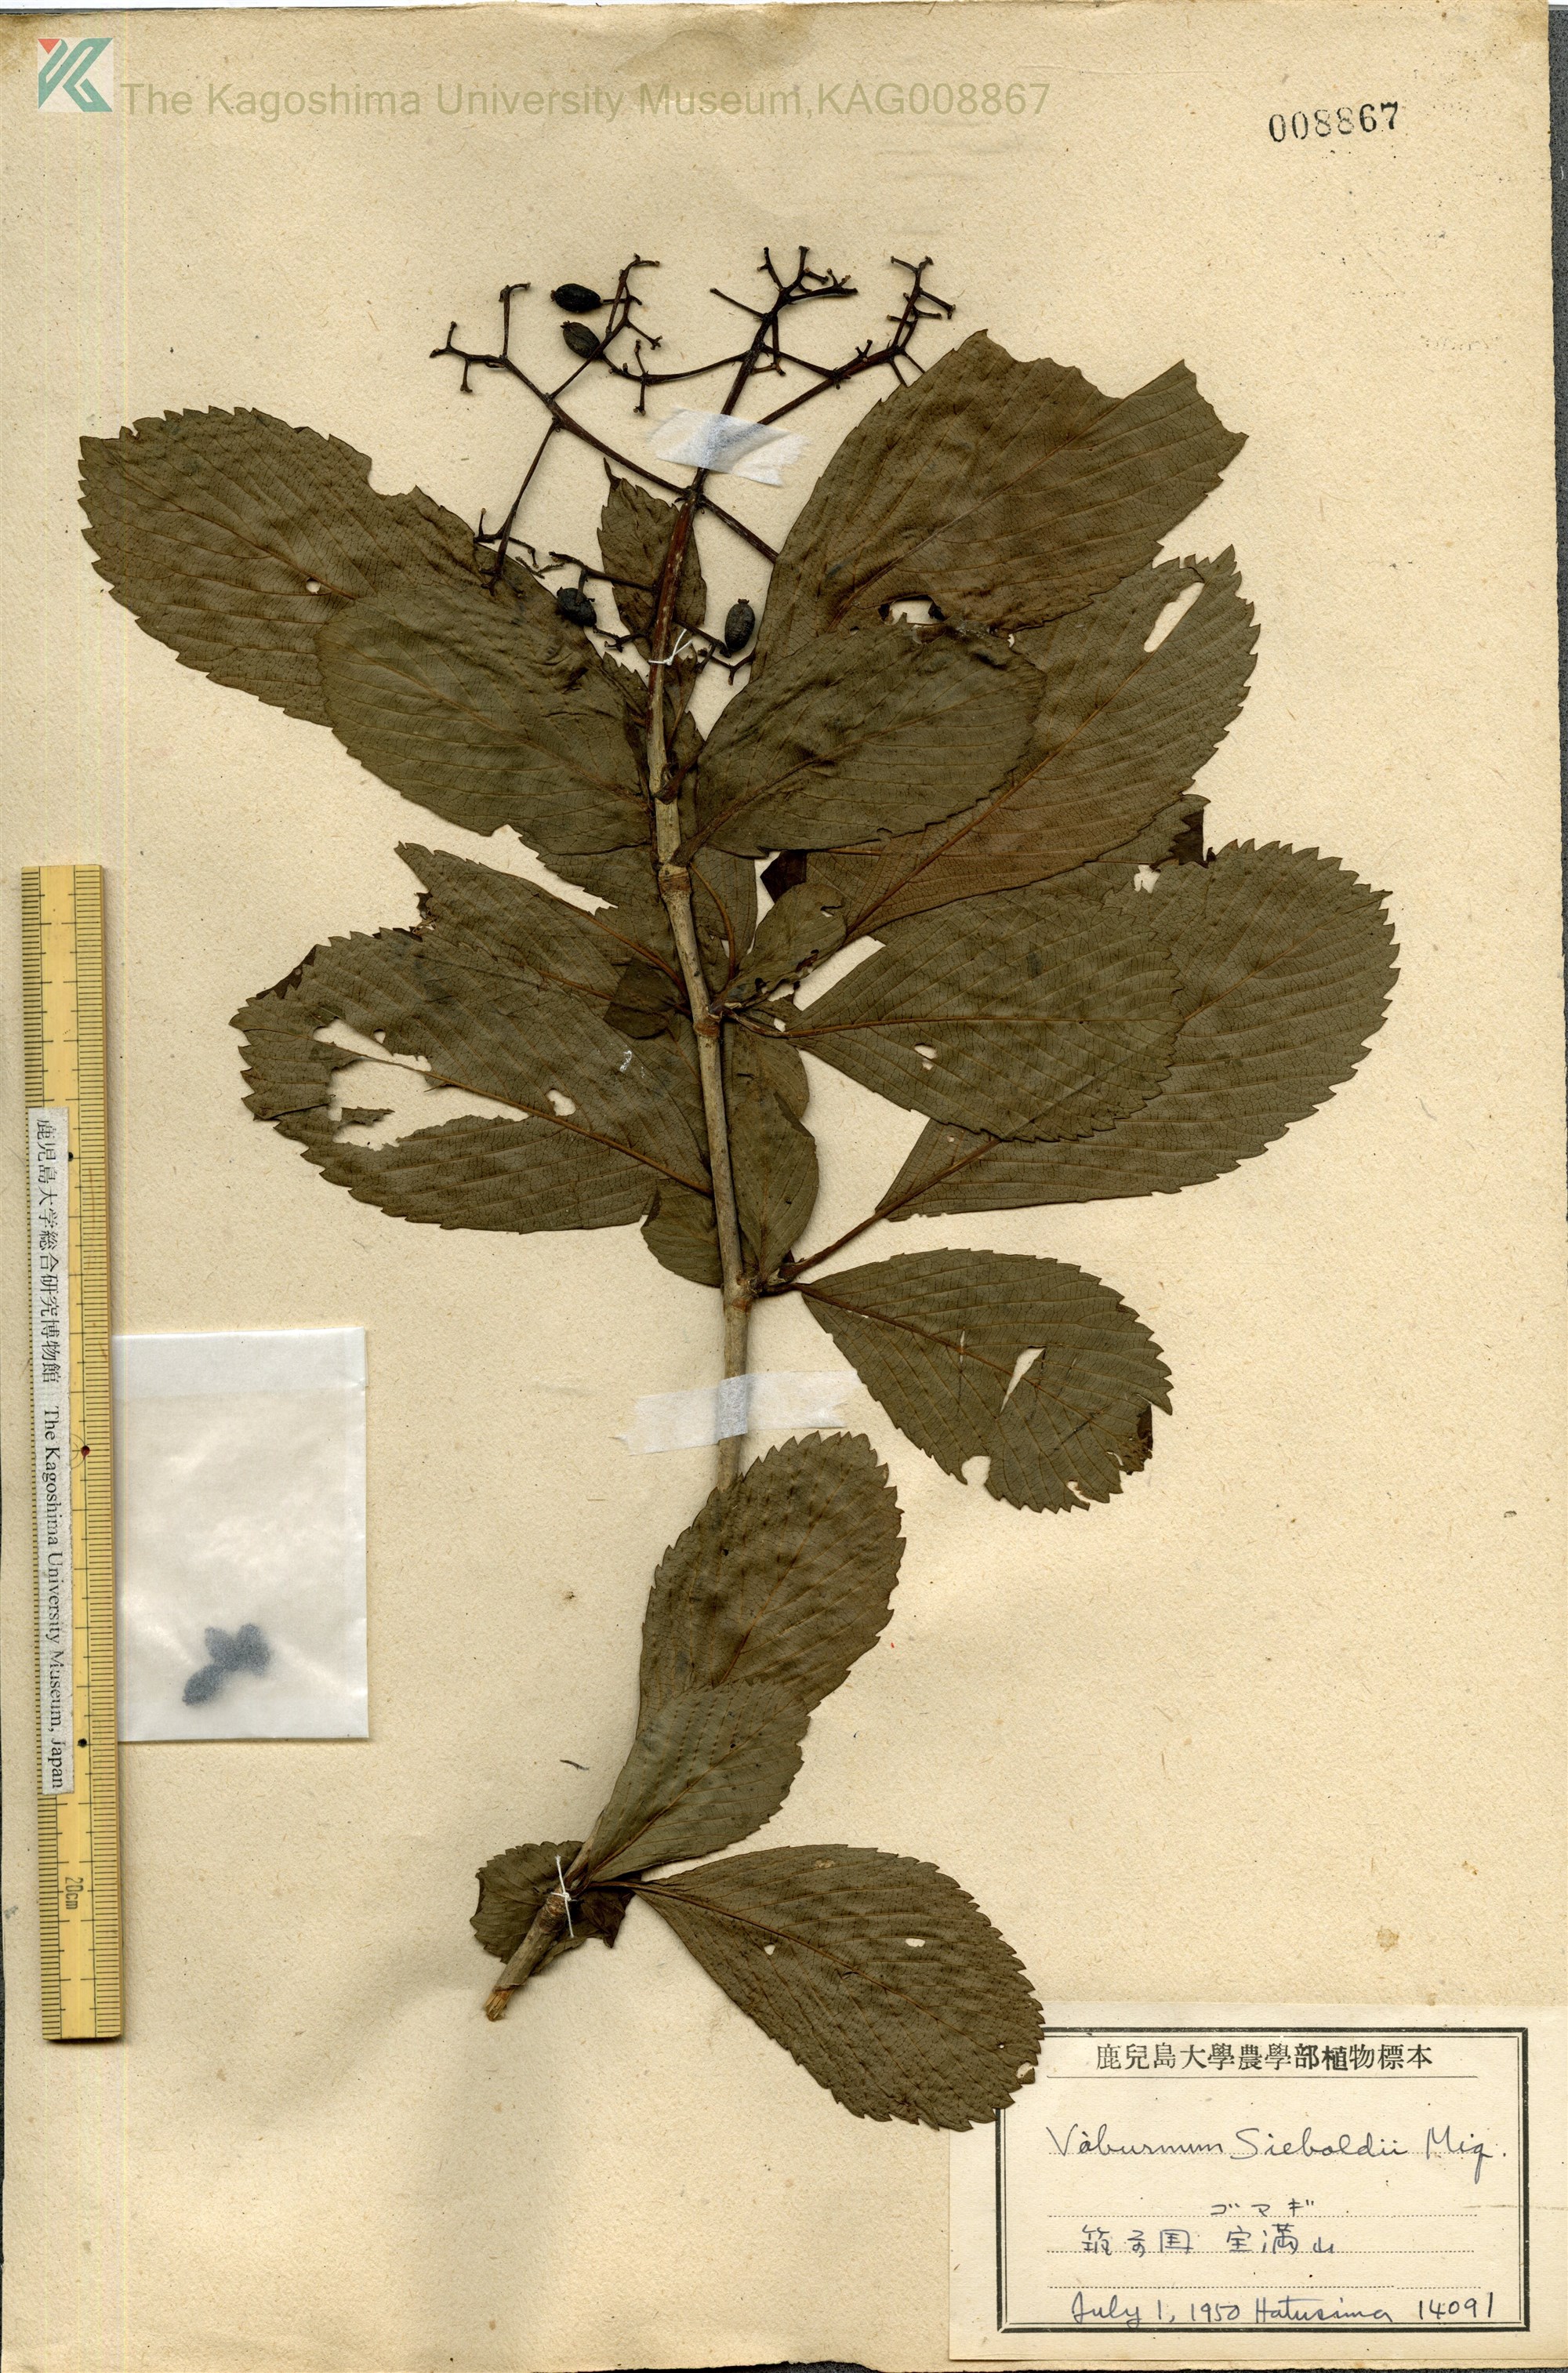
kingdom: Plantae
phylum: Tracheophyta
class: Magnoliopsida
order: Dipsacales
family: Viburnaceae
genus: Viburnum
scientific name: Viburnum sieboldii
